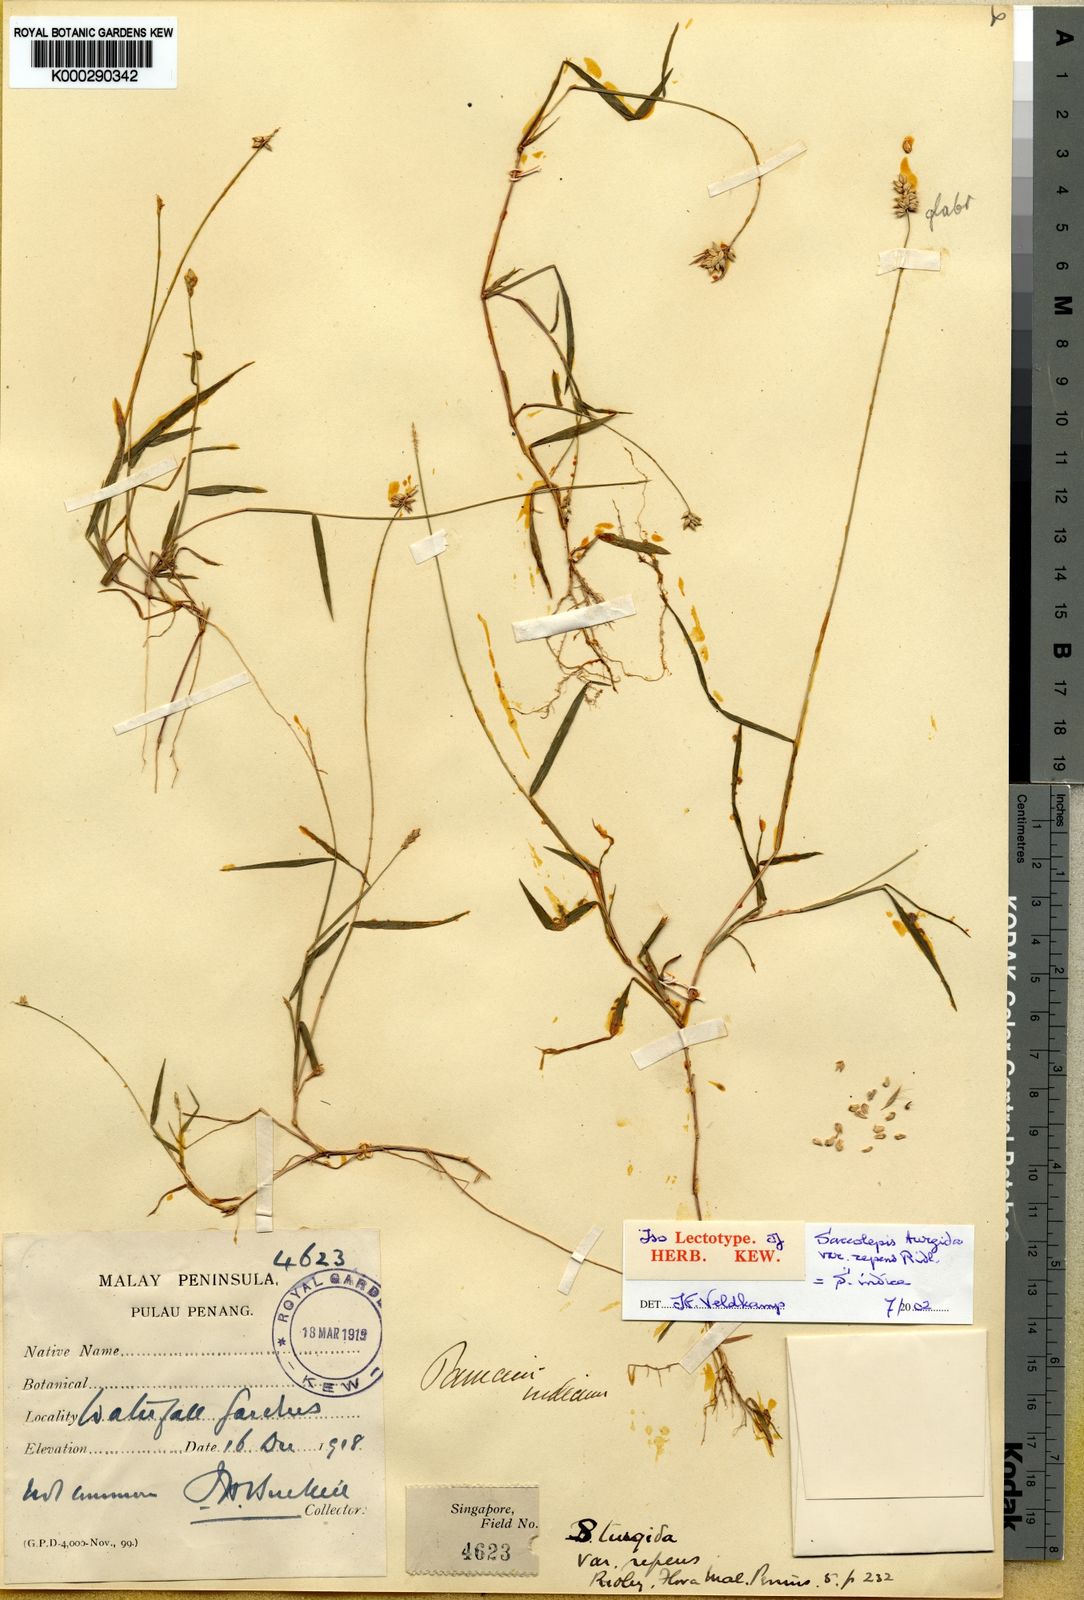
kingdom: Plantae
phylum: Tracheophyta
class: Liliopsida
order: Poales
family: Poaceae
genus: Sacciolepis
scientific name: Sacciolepis indica
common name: Glenwoodgrass
